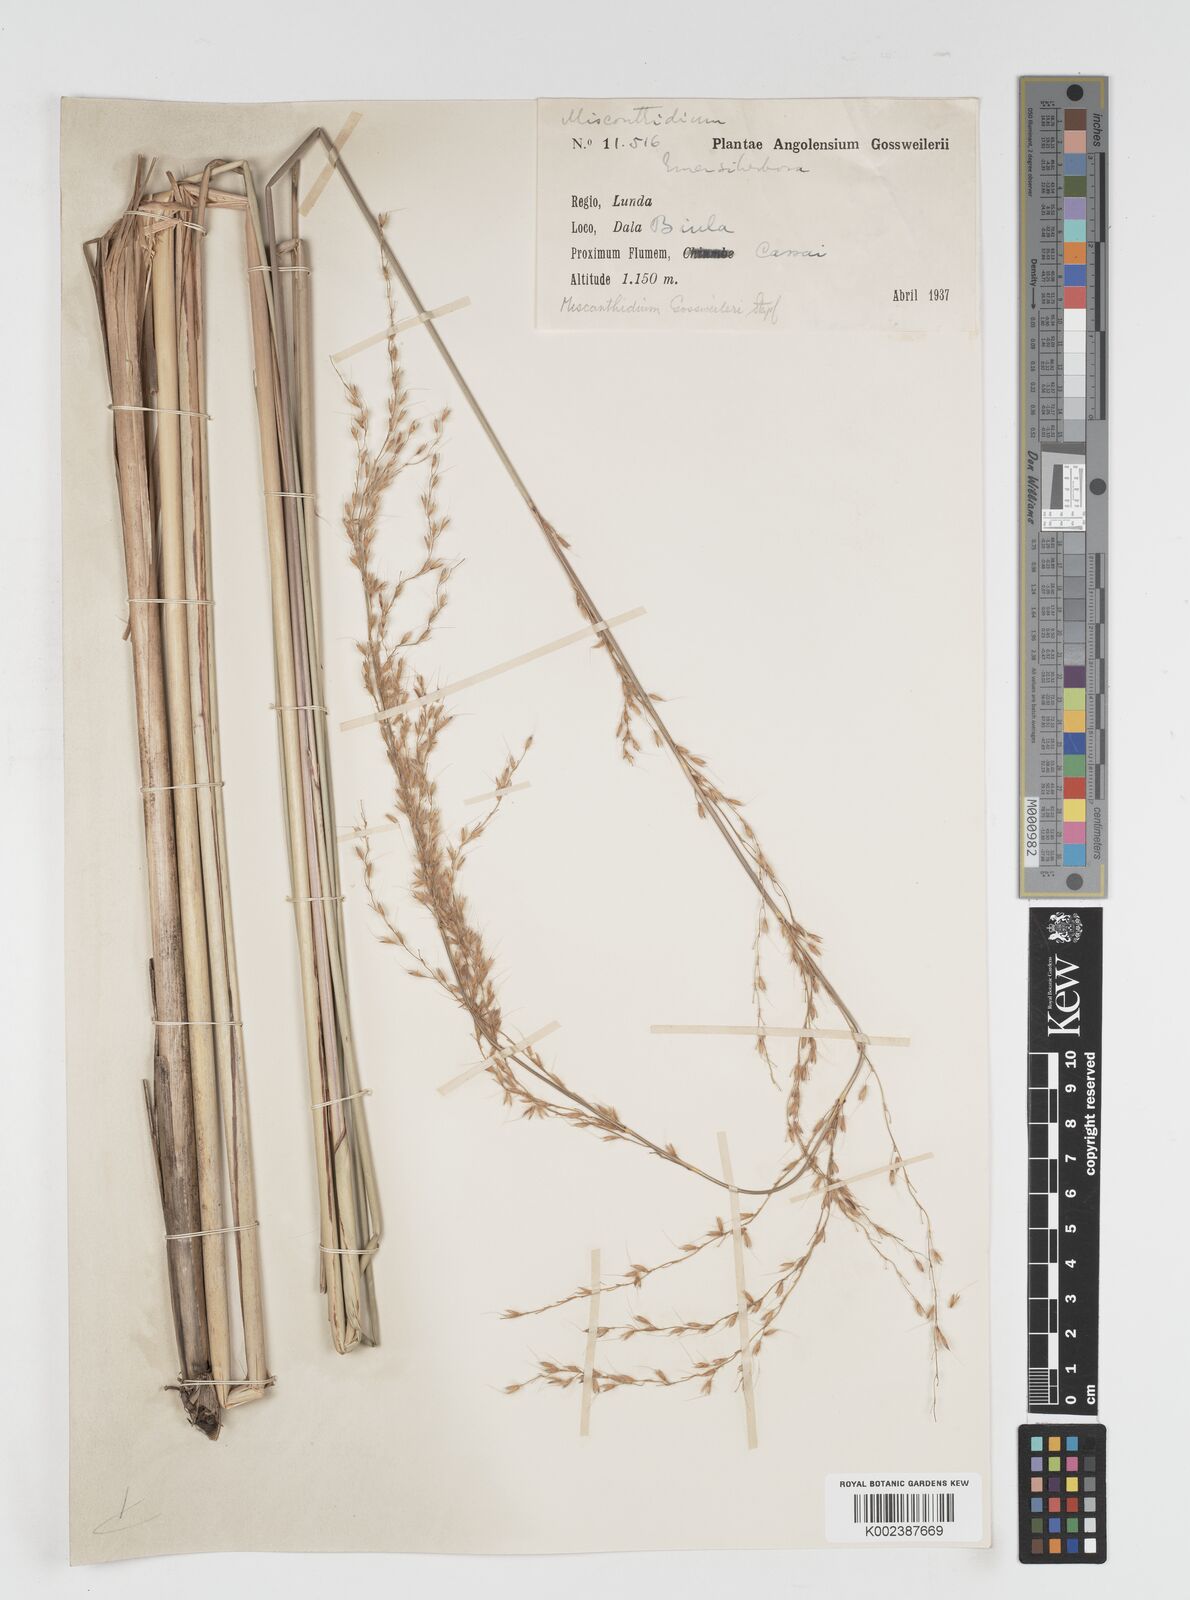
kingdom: Plantae
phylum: Tracheophyta
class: Liliopsida
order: Poales
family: Poaceae
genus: Miscanthidium
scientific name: Miscanthidium junceum
